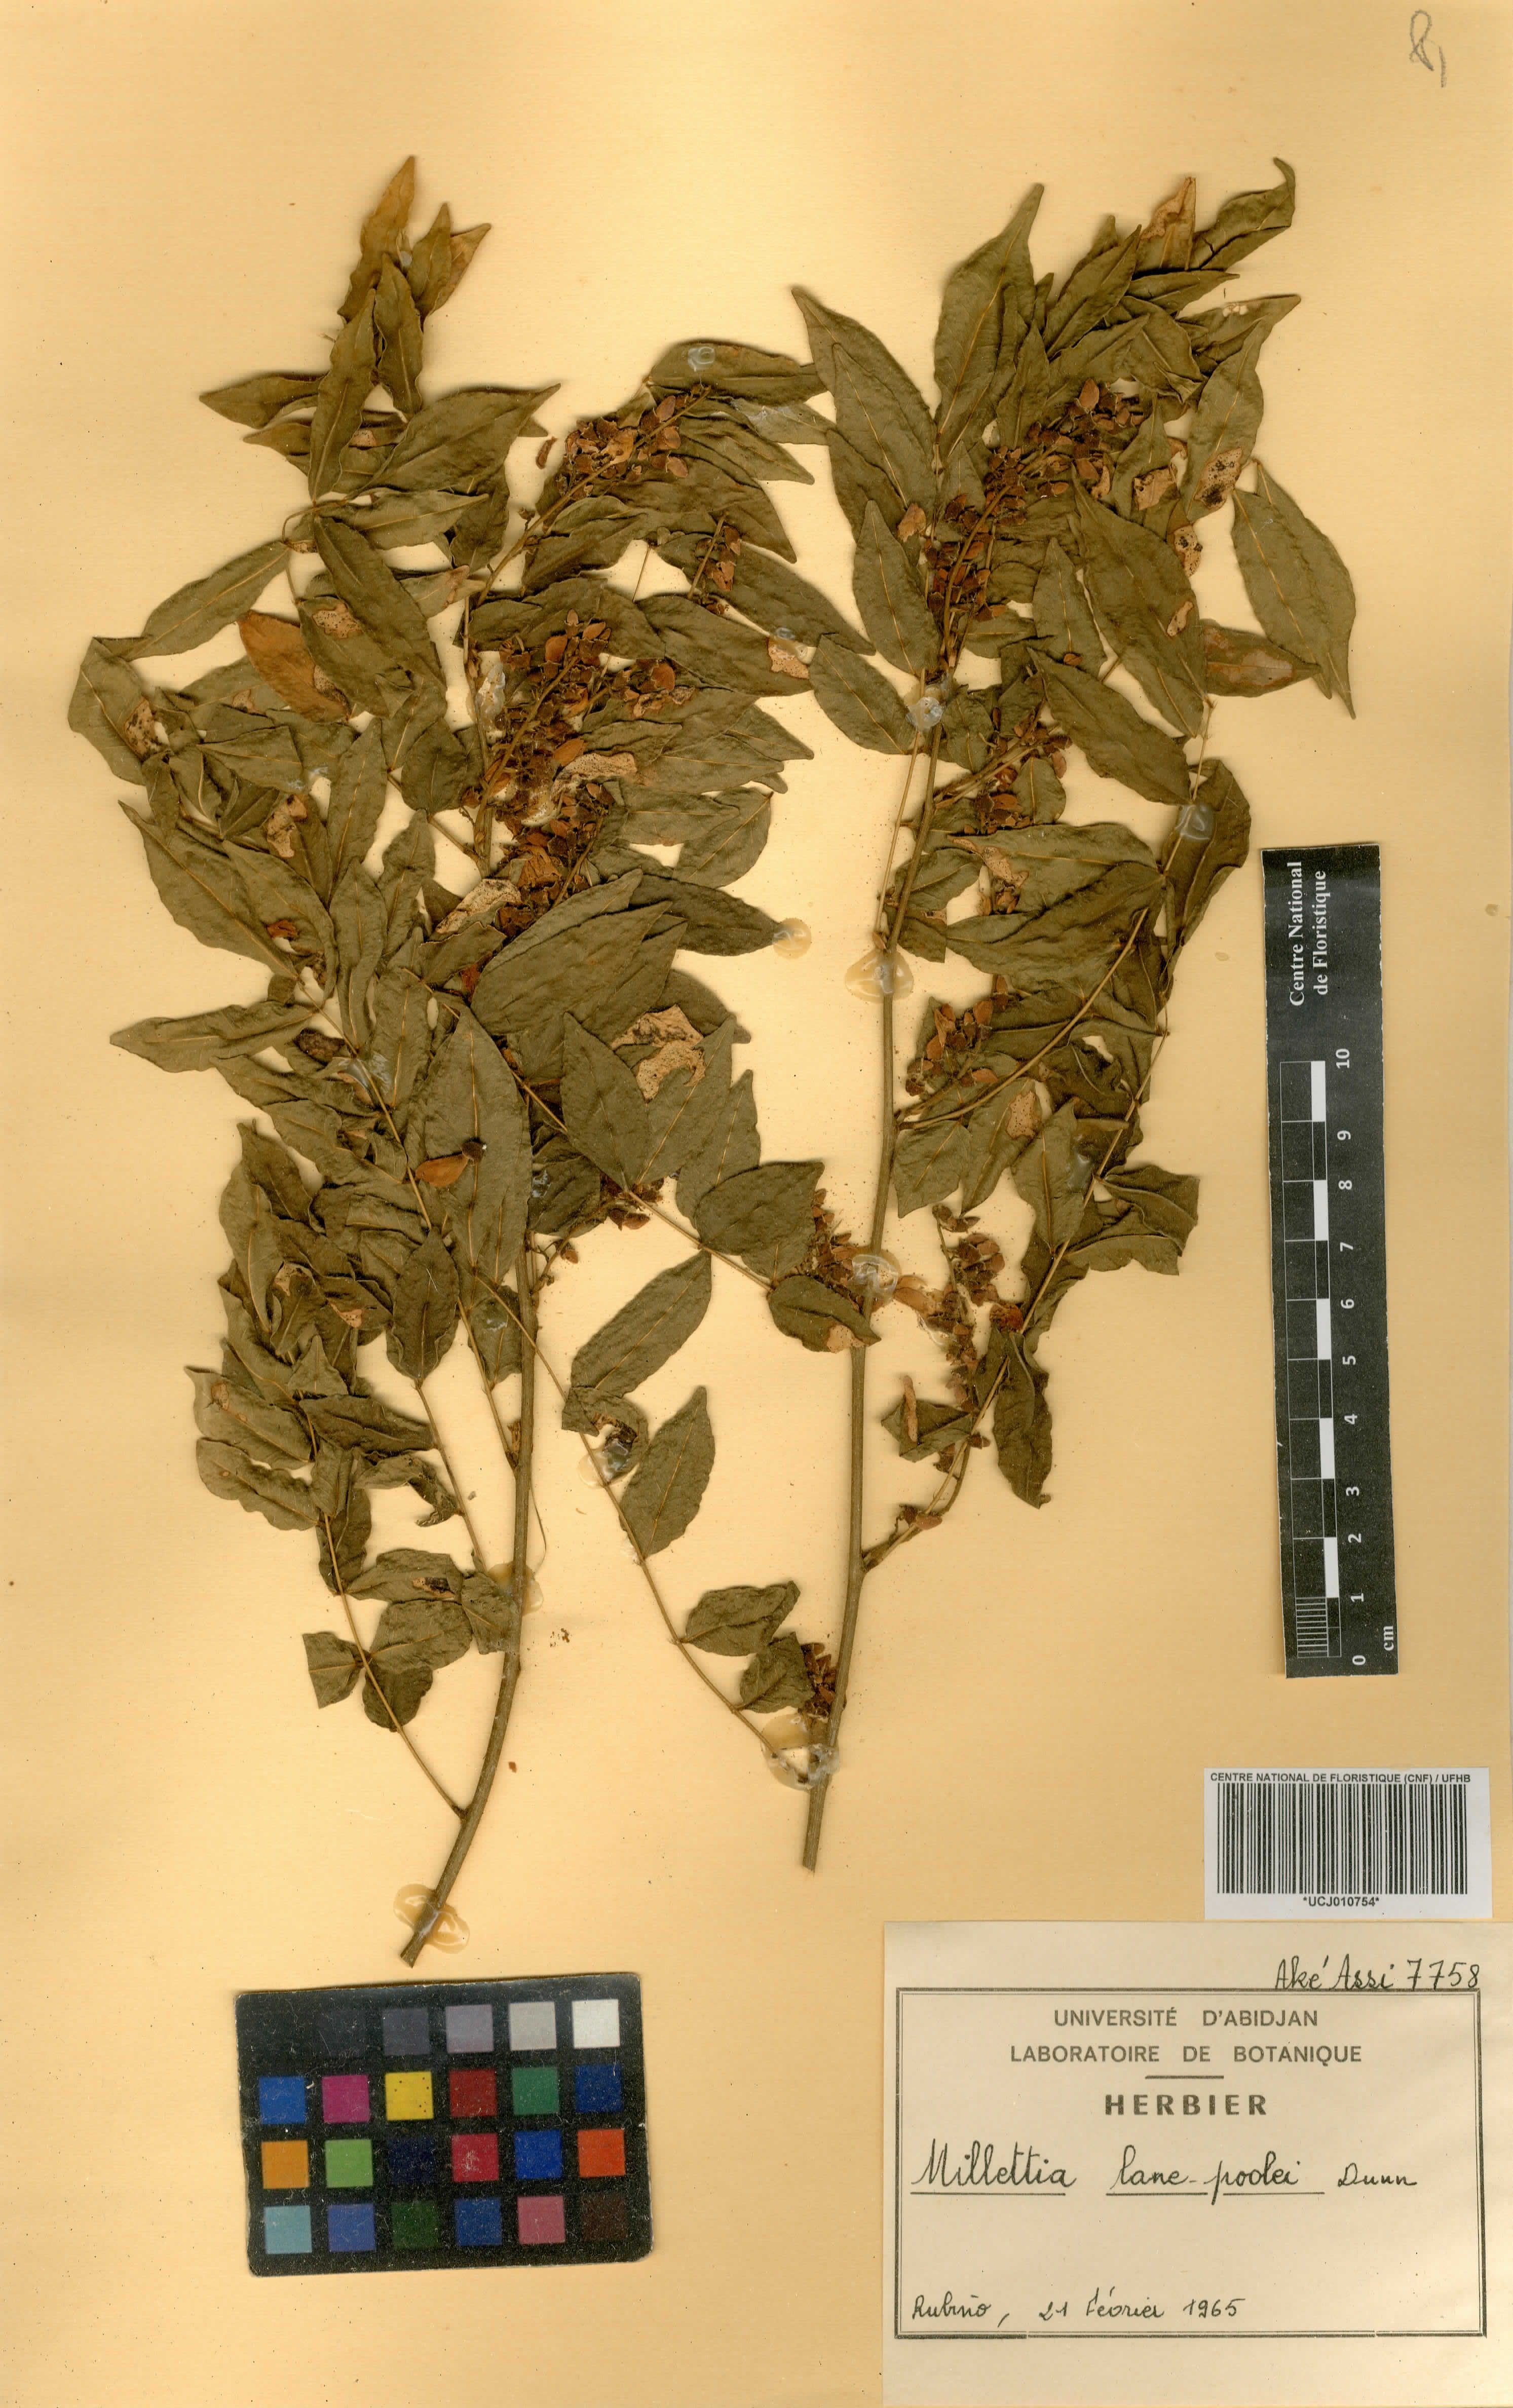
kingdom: Plantae
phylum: Tracheophyta
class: Magnoliopsida
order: Fabales
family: Fabaceae
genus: Millettia
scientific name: Millettia lane-poolei
